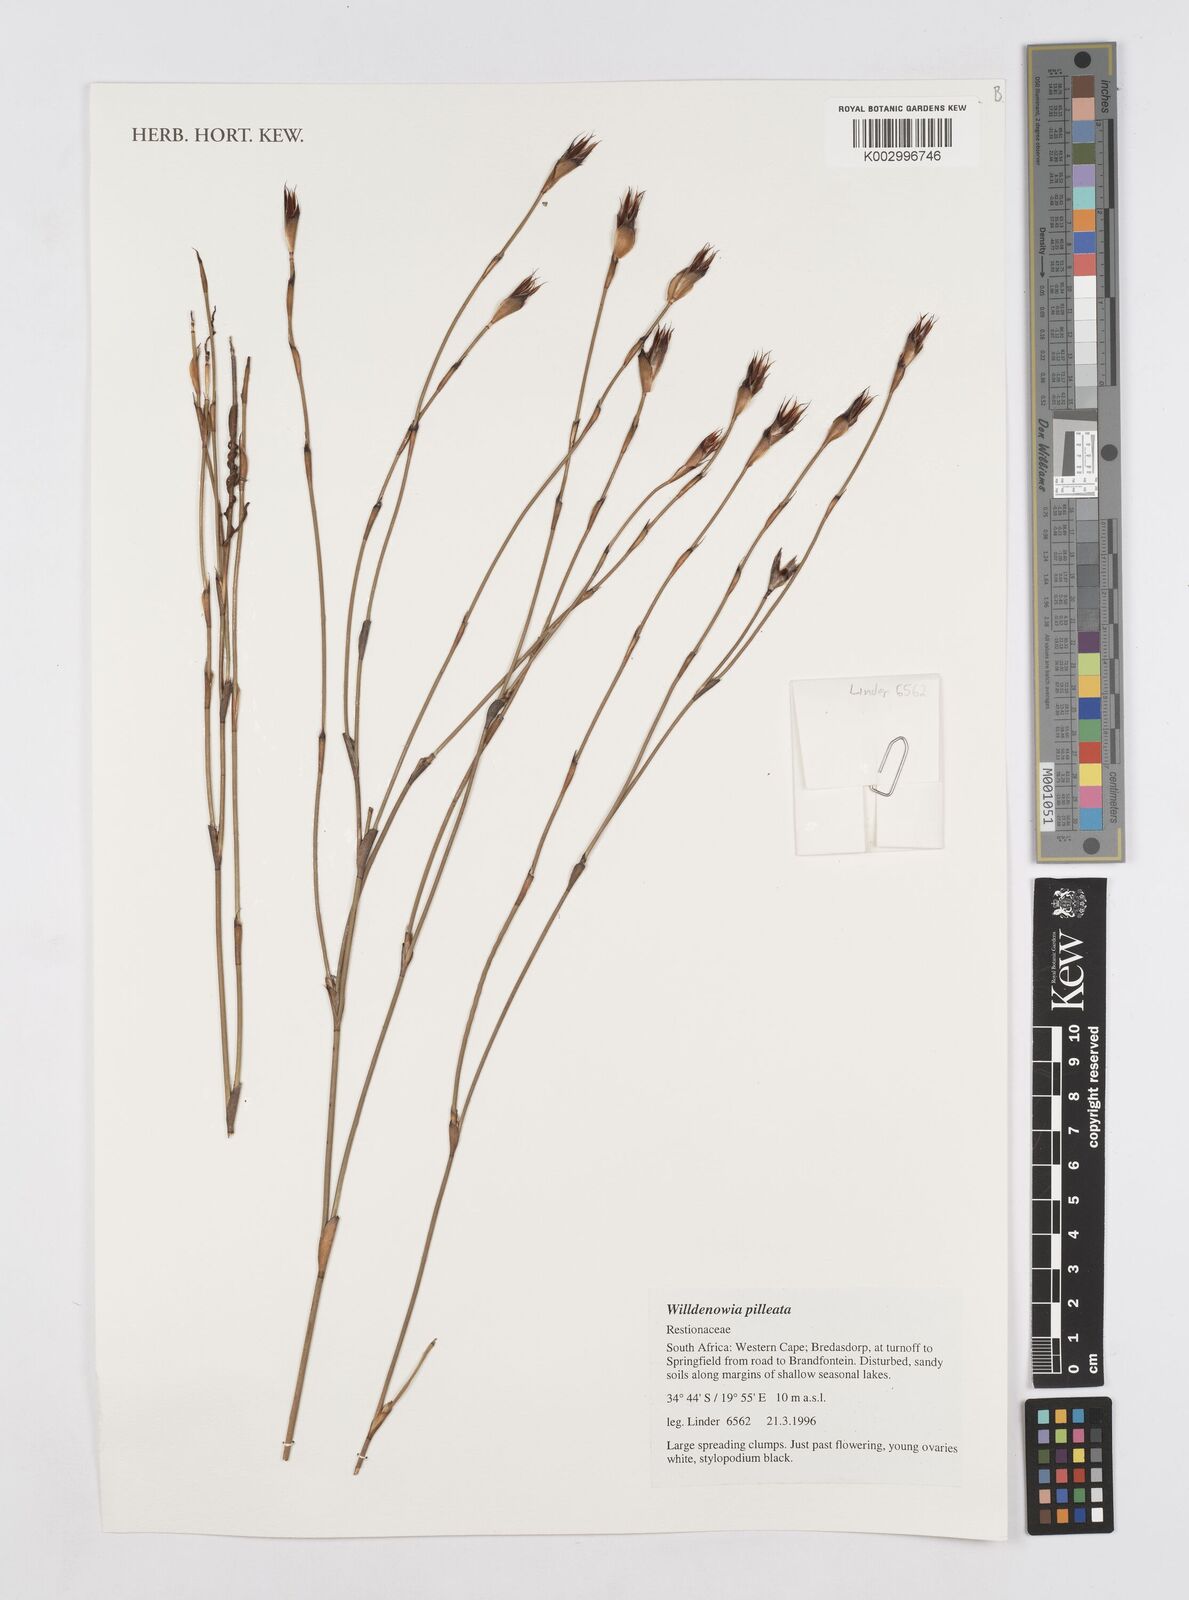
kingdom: Plantae
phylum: Tracheophyta
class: Liliopsida
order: Poales
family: Restionaceae
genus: Willdenowia
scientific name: Willdenowia pilleata
